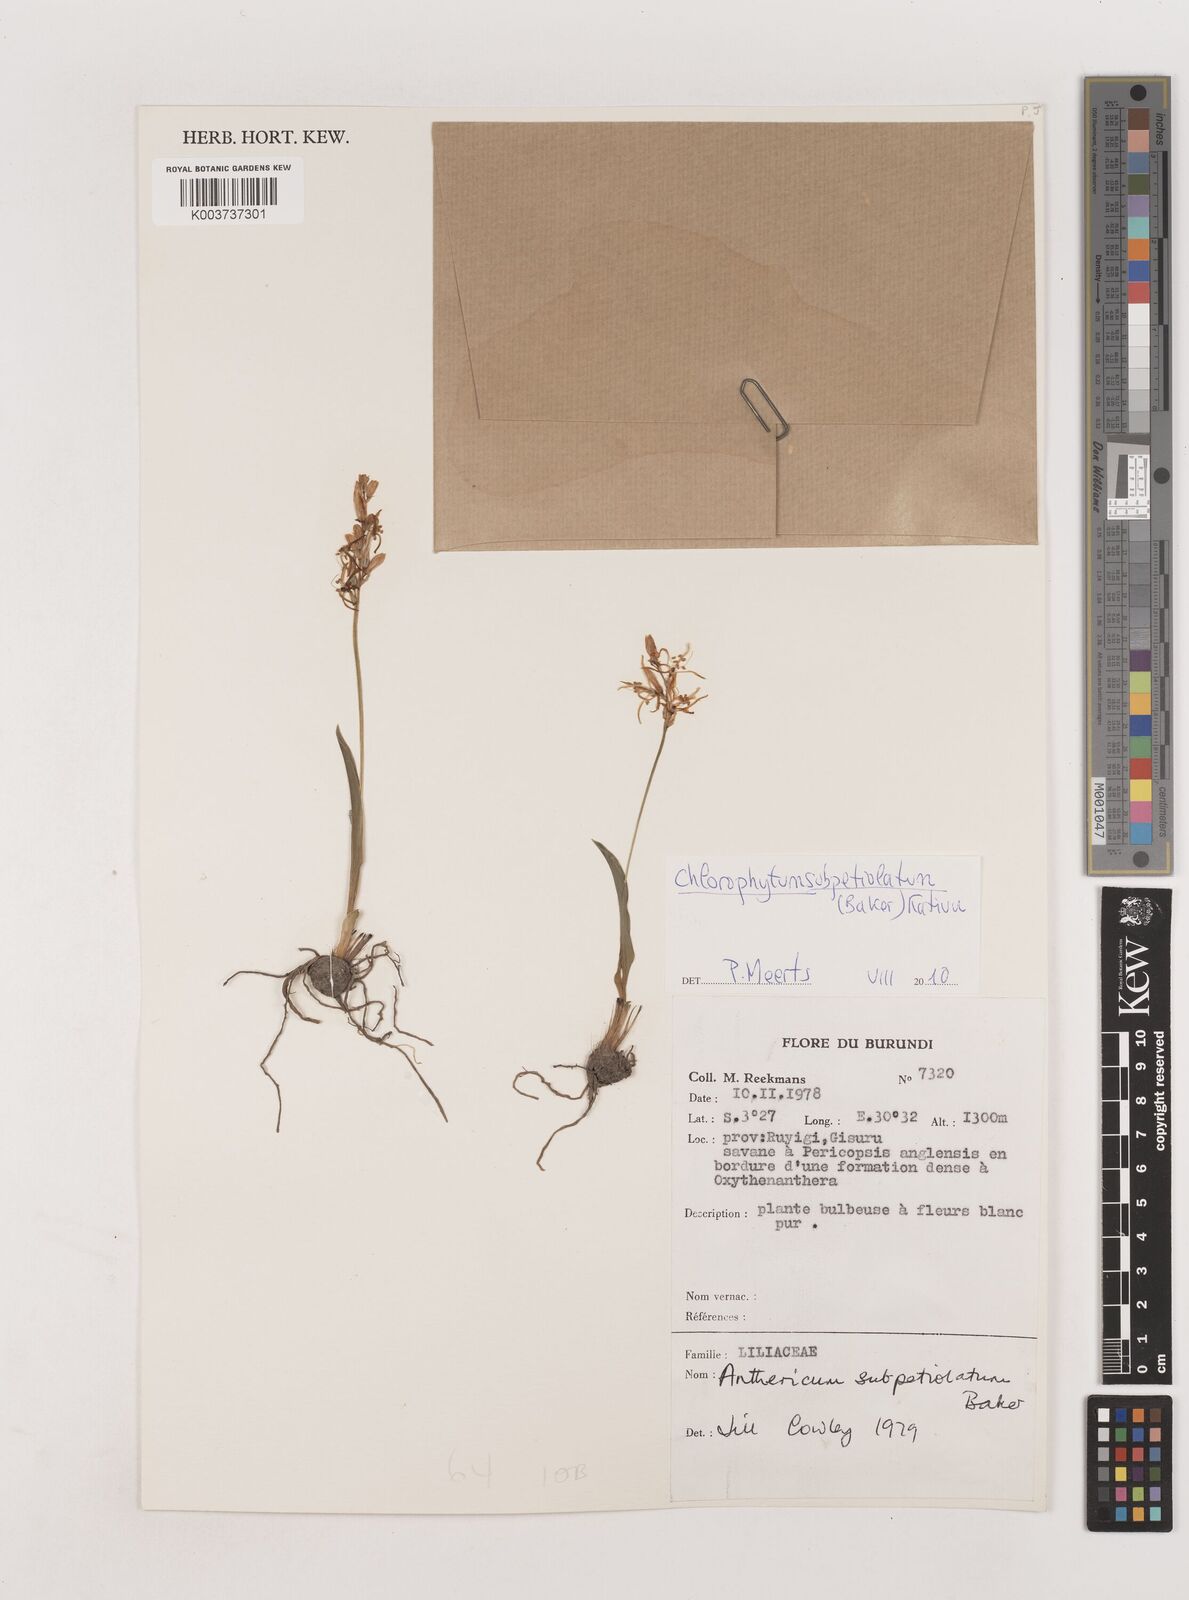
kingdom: Plantae
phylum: Tracheophyta
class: Liliopsida
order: Asparagales
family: Asparagaceae
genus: Chlorophytum
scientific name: Chlorophytum subpetiolatum
